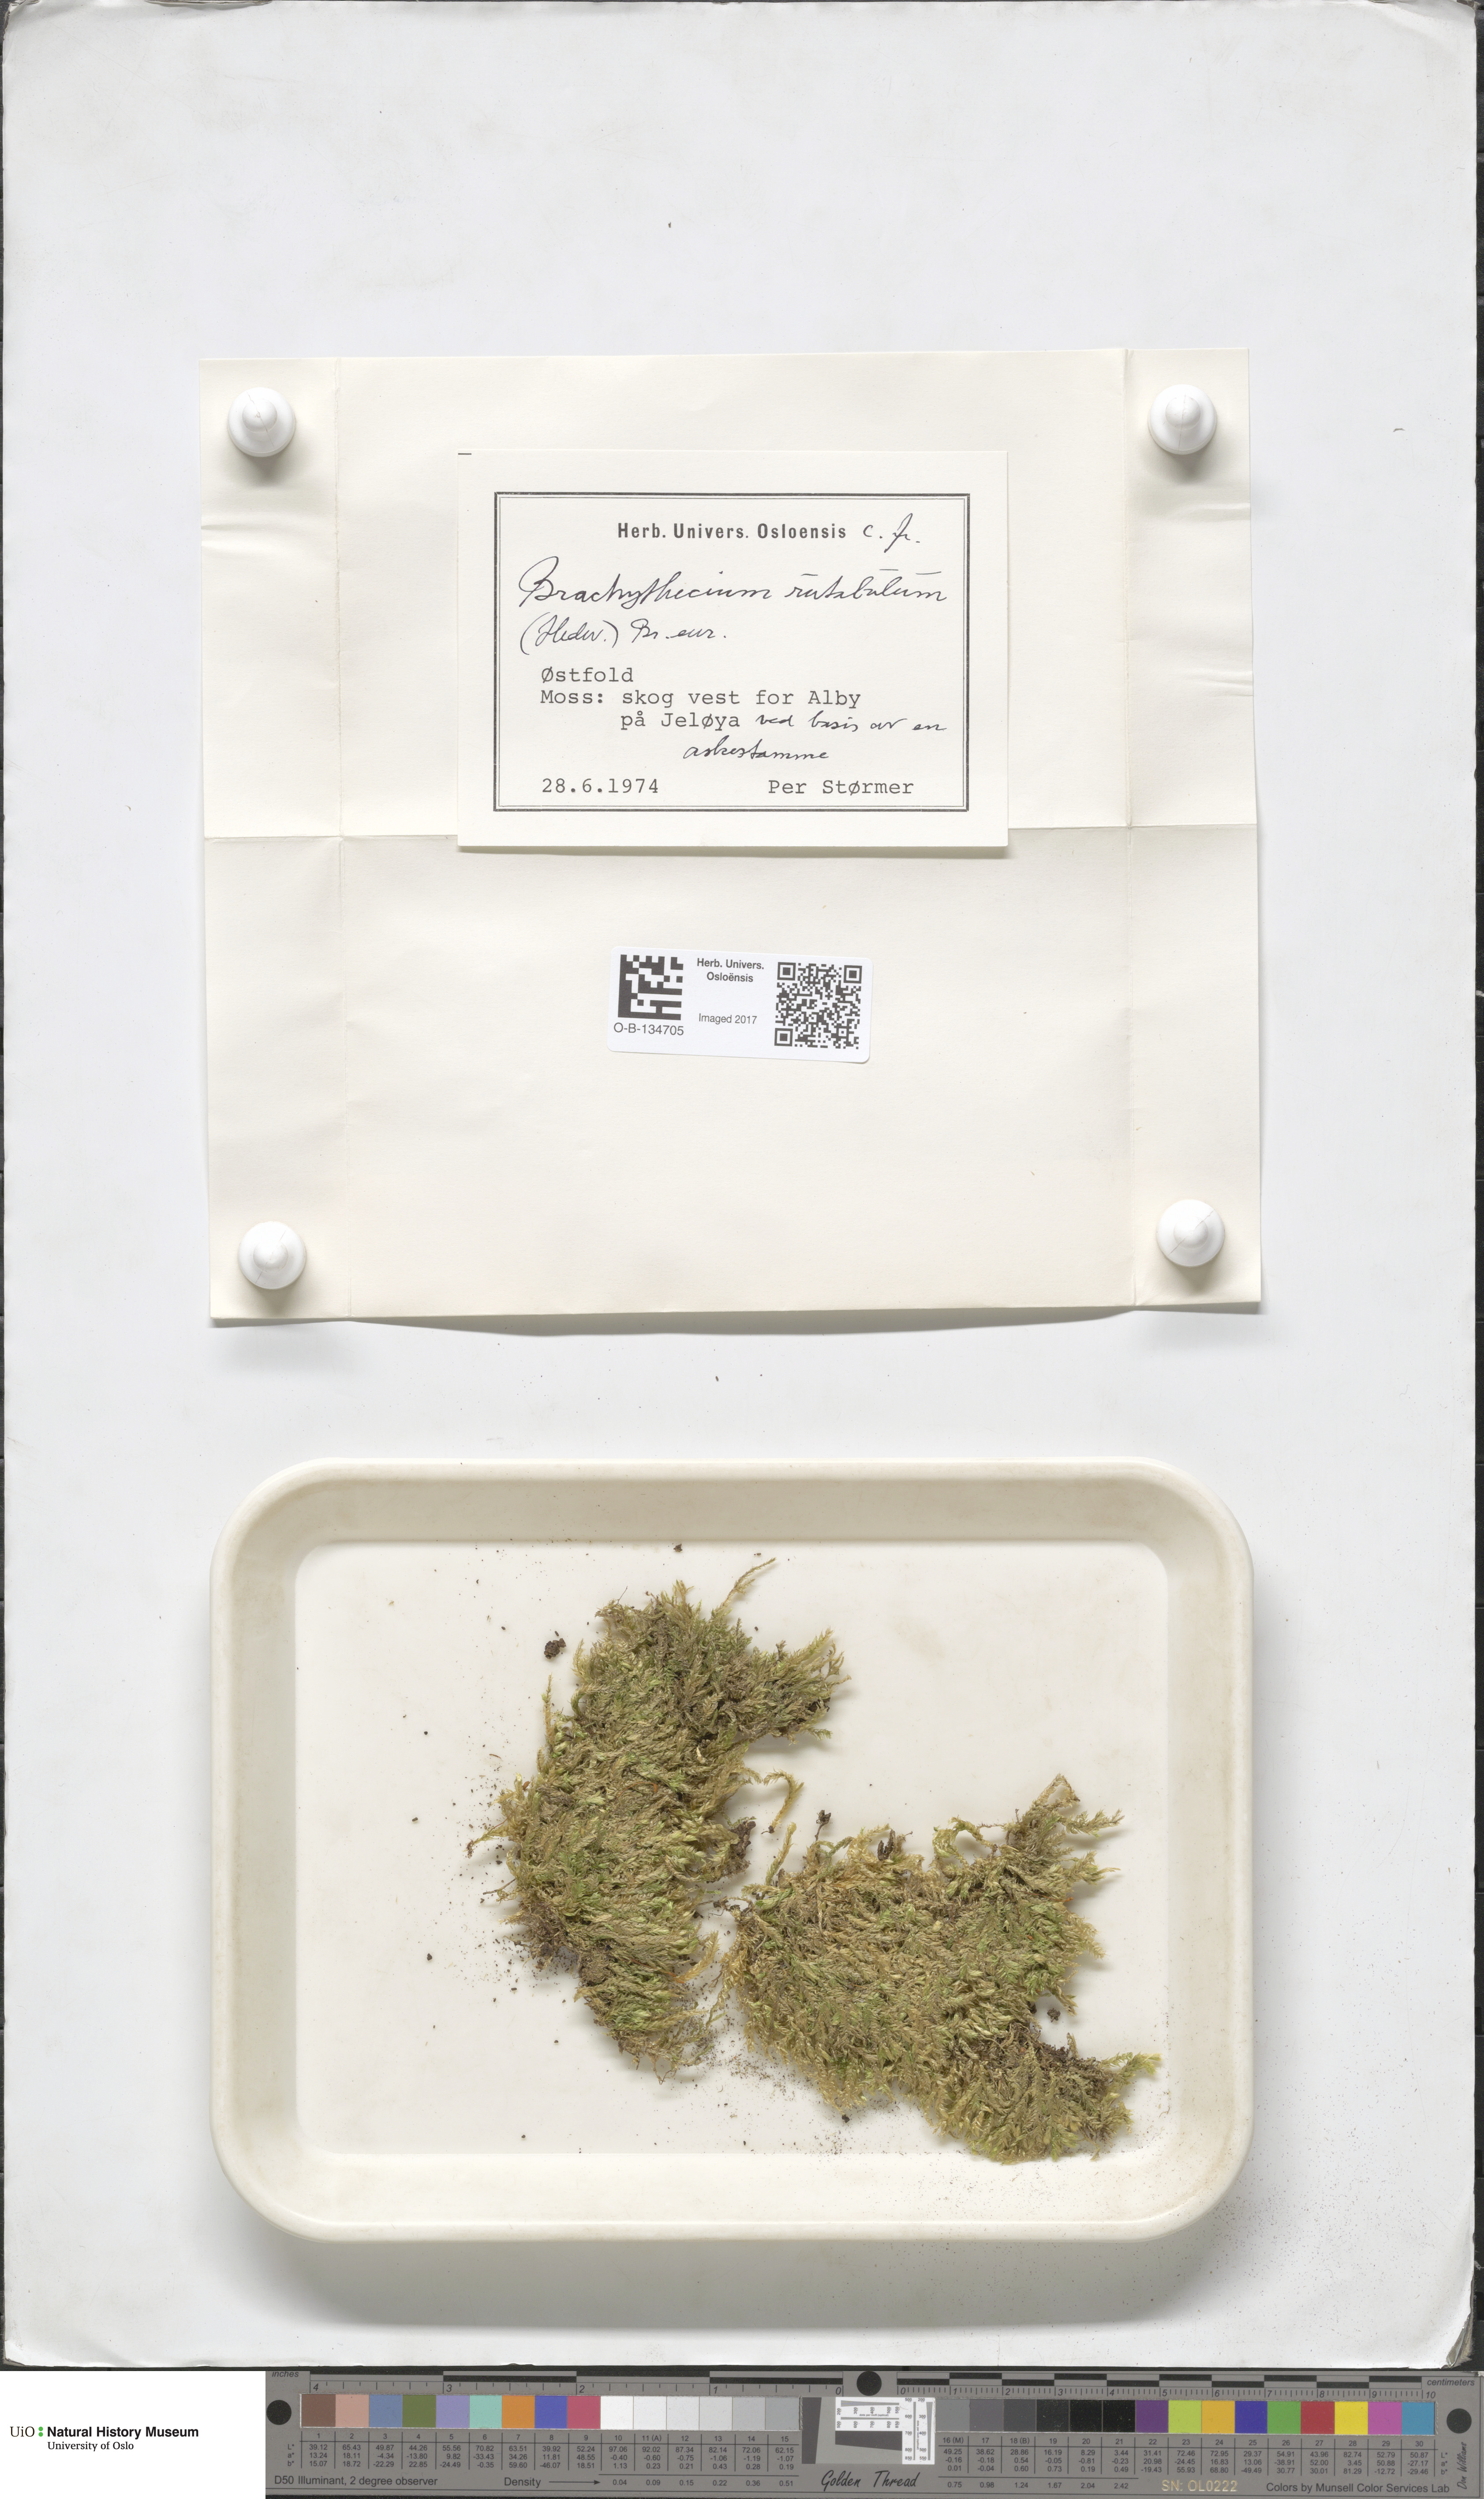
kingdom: Plantae
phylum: Bryophyta
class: Bryopsida
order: Hypnales
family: Brachytheciaceae
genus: Brachythecium
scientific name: Brachythecium rutabulum
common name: Rough-stalked feather-moss
